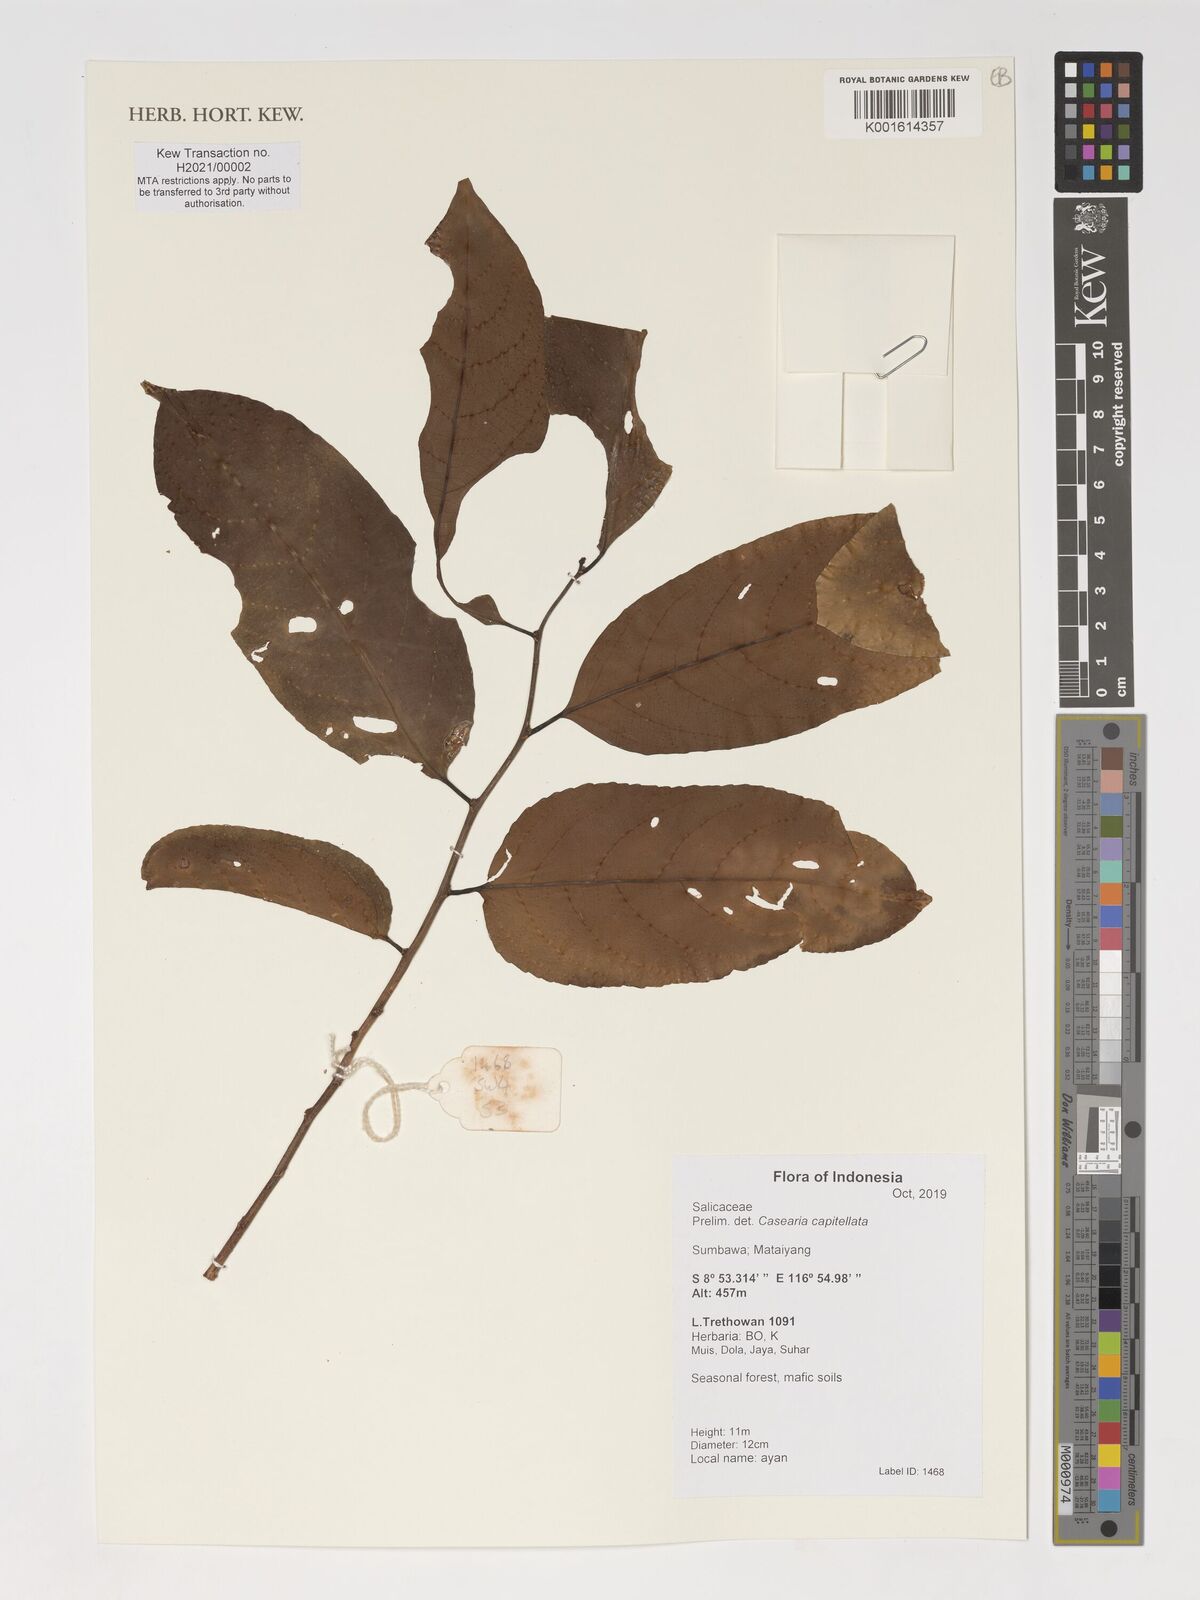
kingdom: Plantae
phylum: Tracheophyta
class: Magnoliopsida
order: Malpighiales
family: Salicaceae
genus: Casearia
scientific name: Casearia capitellata
